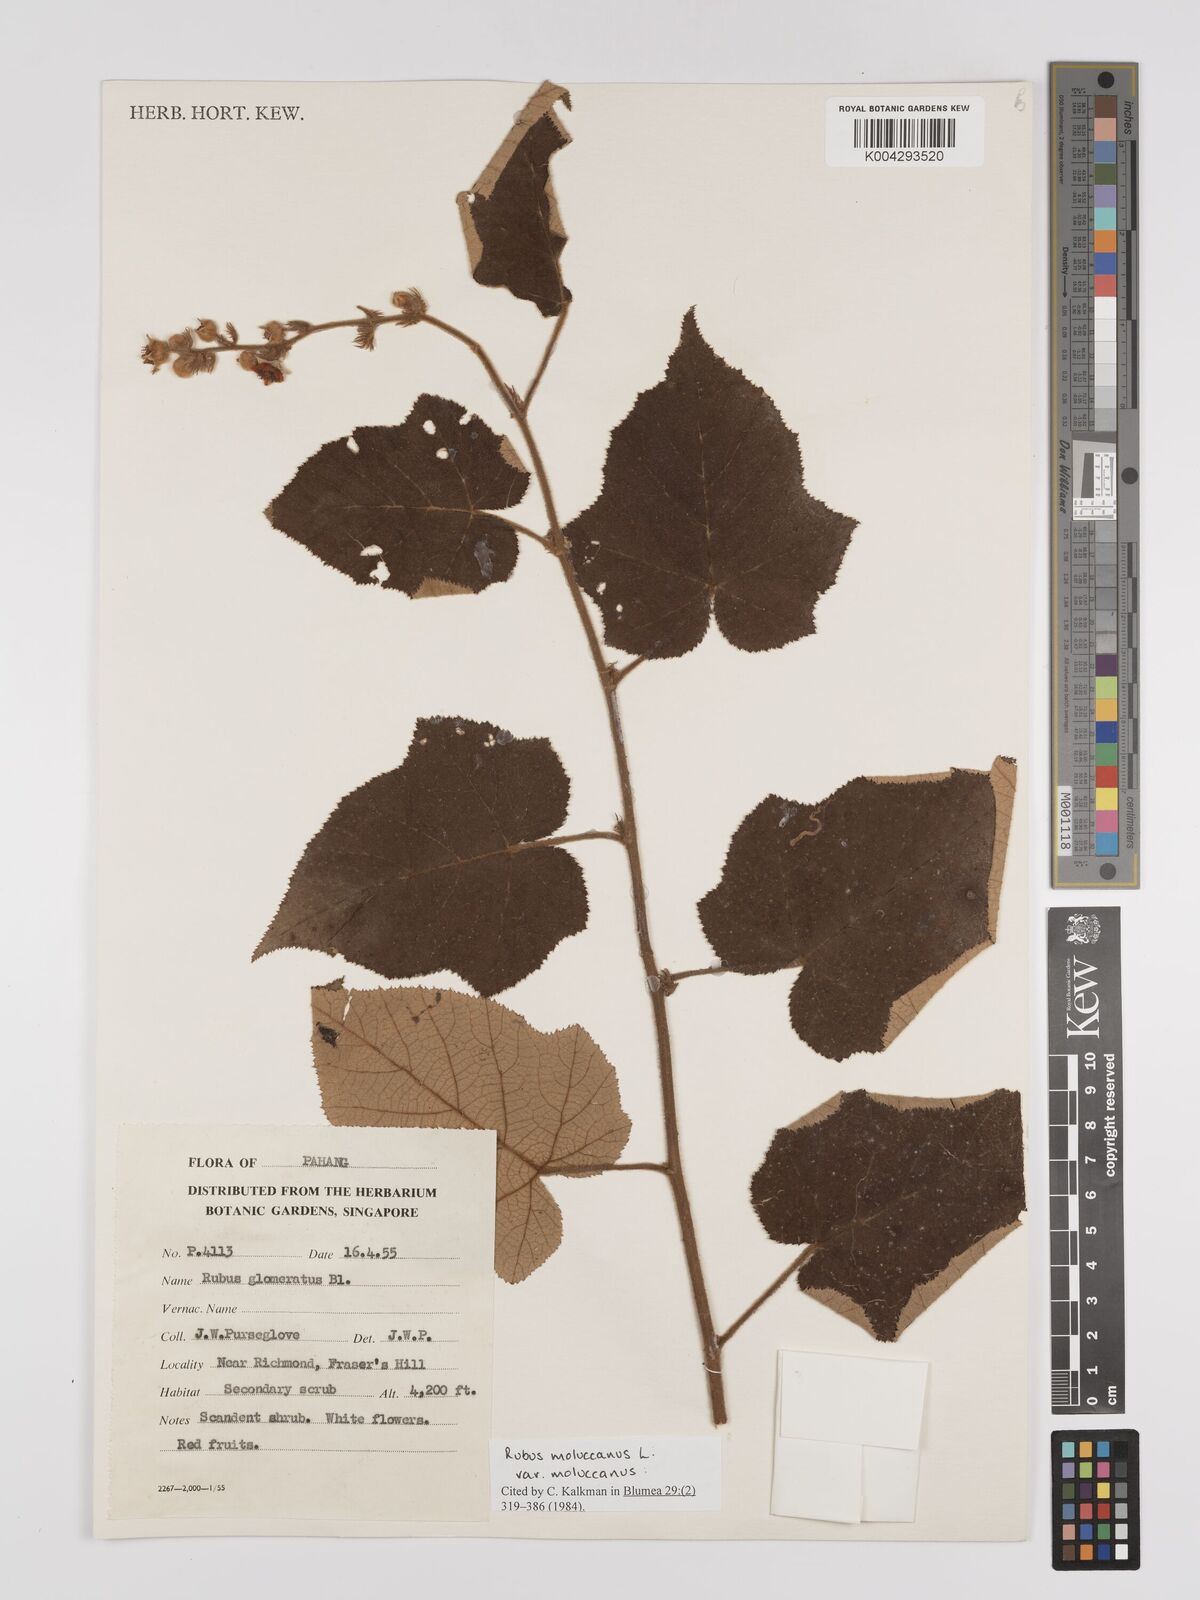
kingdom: Plantae
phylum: Tracheophyta
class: Magnoliopsida
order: Rosales
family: Rosaceae
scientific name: Rosaceae
